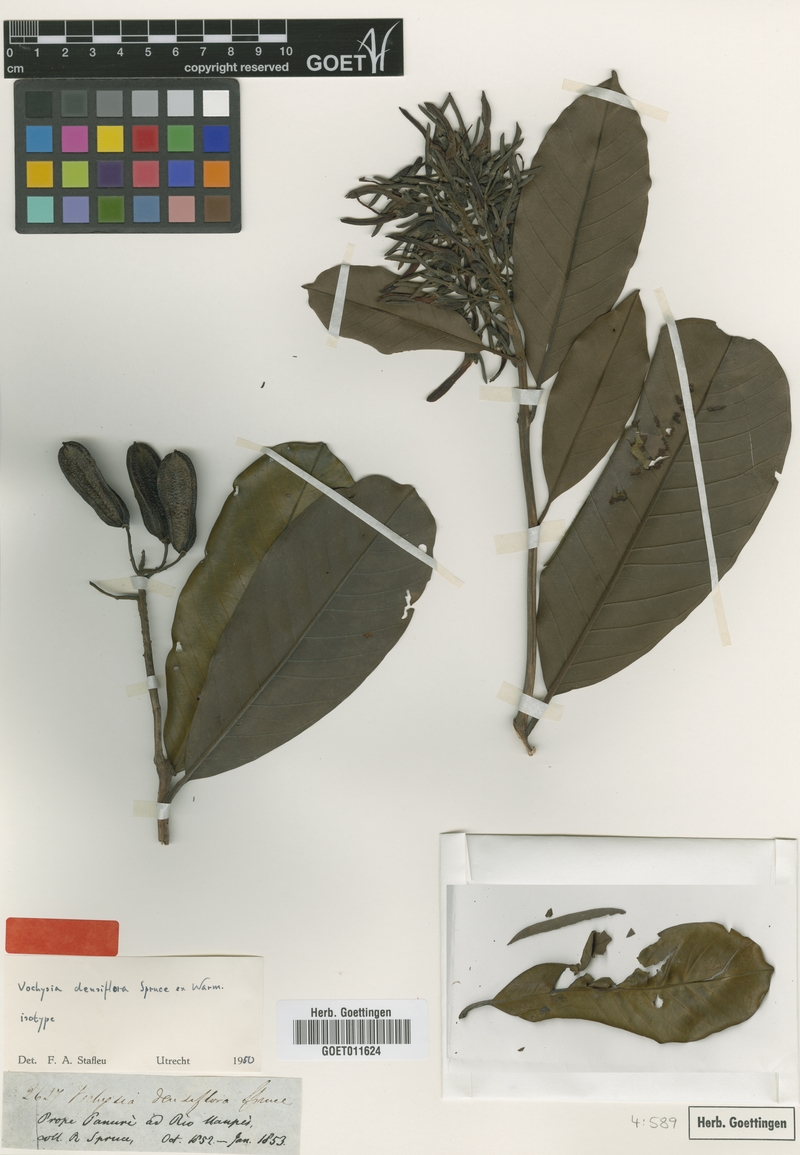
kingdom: Plantae
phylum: Tracheophyta
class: Magnoliopsida
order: Myrtales
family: Vochysiaceae
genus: Vochysia
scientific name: Vochysia densiflora
